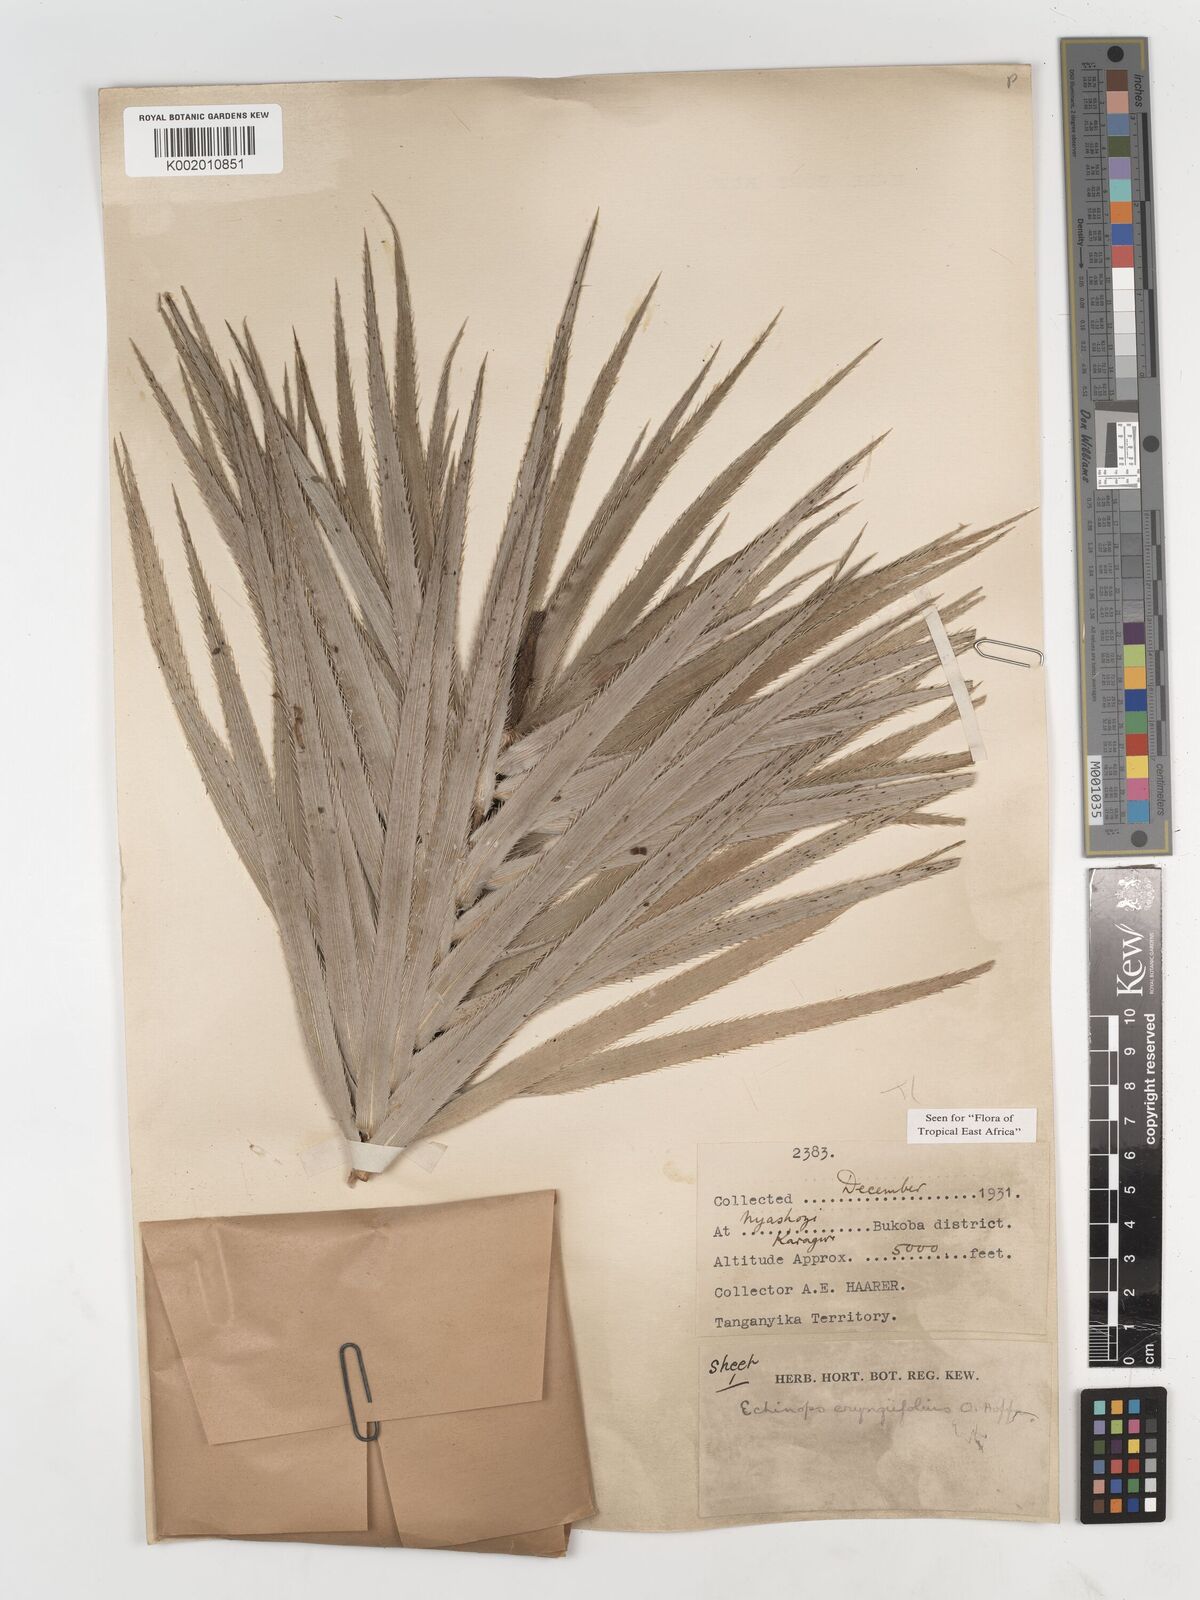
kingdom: Plantae
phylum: Tracheophyta
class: Magnoliopsida
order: Asterales
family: Asteraceae
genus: Echinops
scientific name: Echinops eryngiifolius
